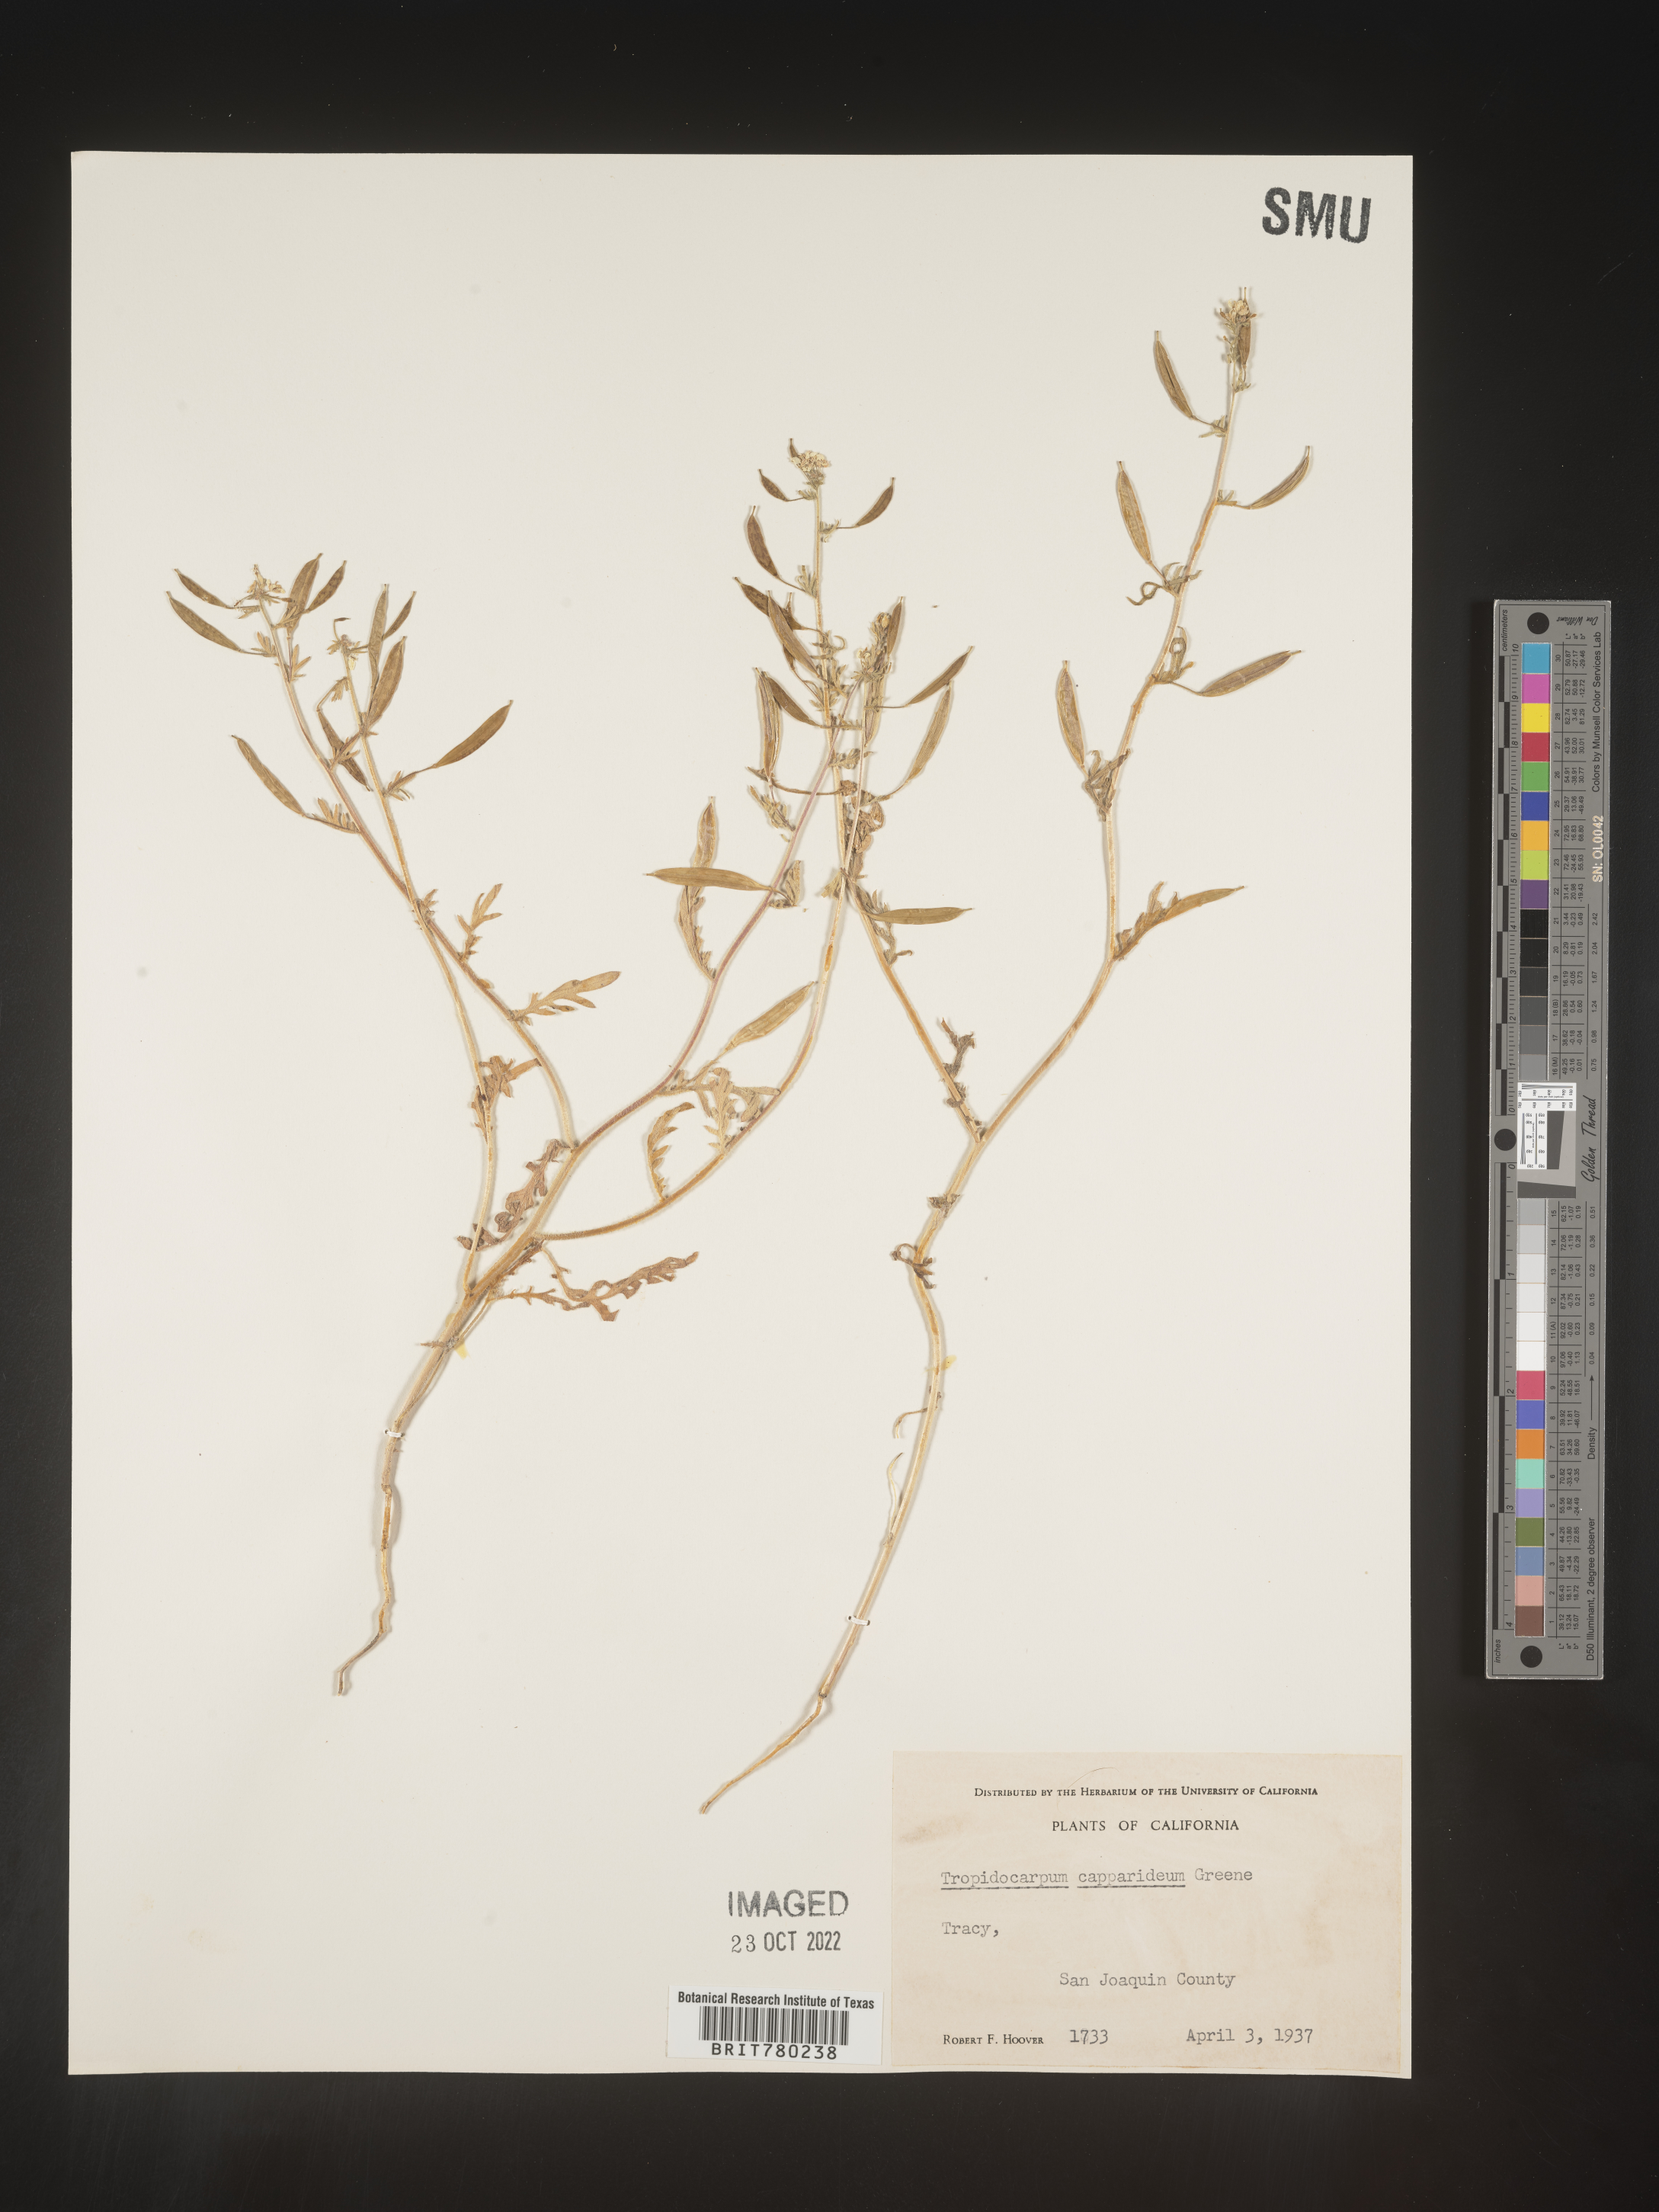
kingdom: Plantae
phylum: Tracheophyta
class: Magnoliopsida
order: Brassicales
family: Brassicaceae
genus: Tropidocarpum
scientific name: Tropidocarpum
